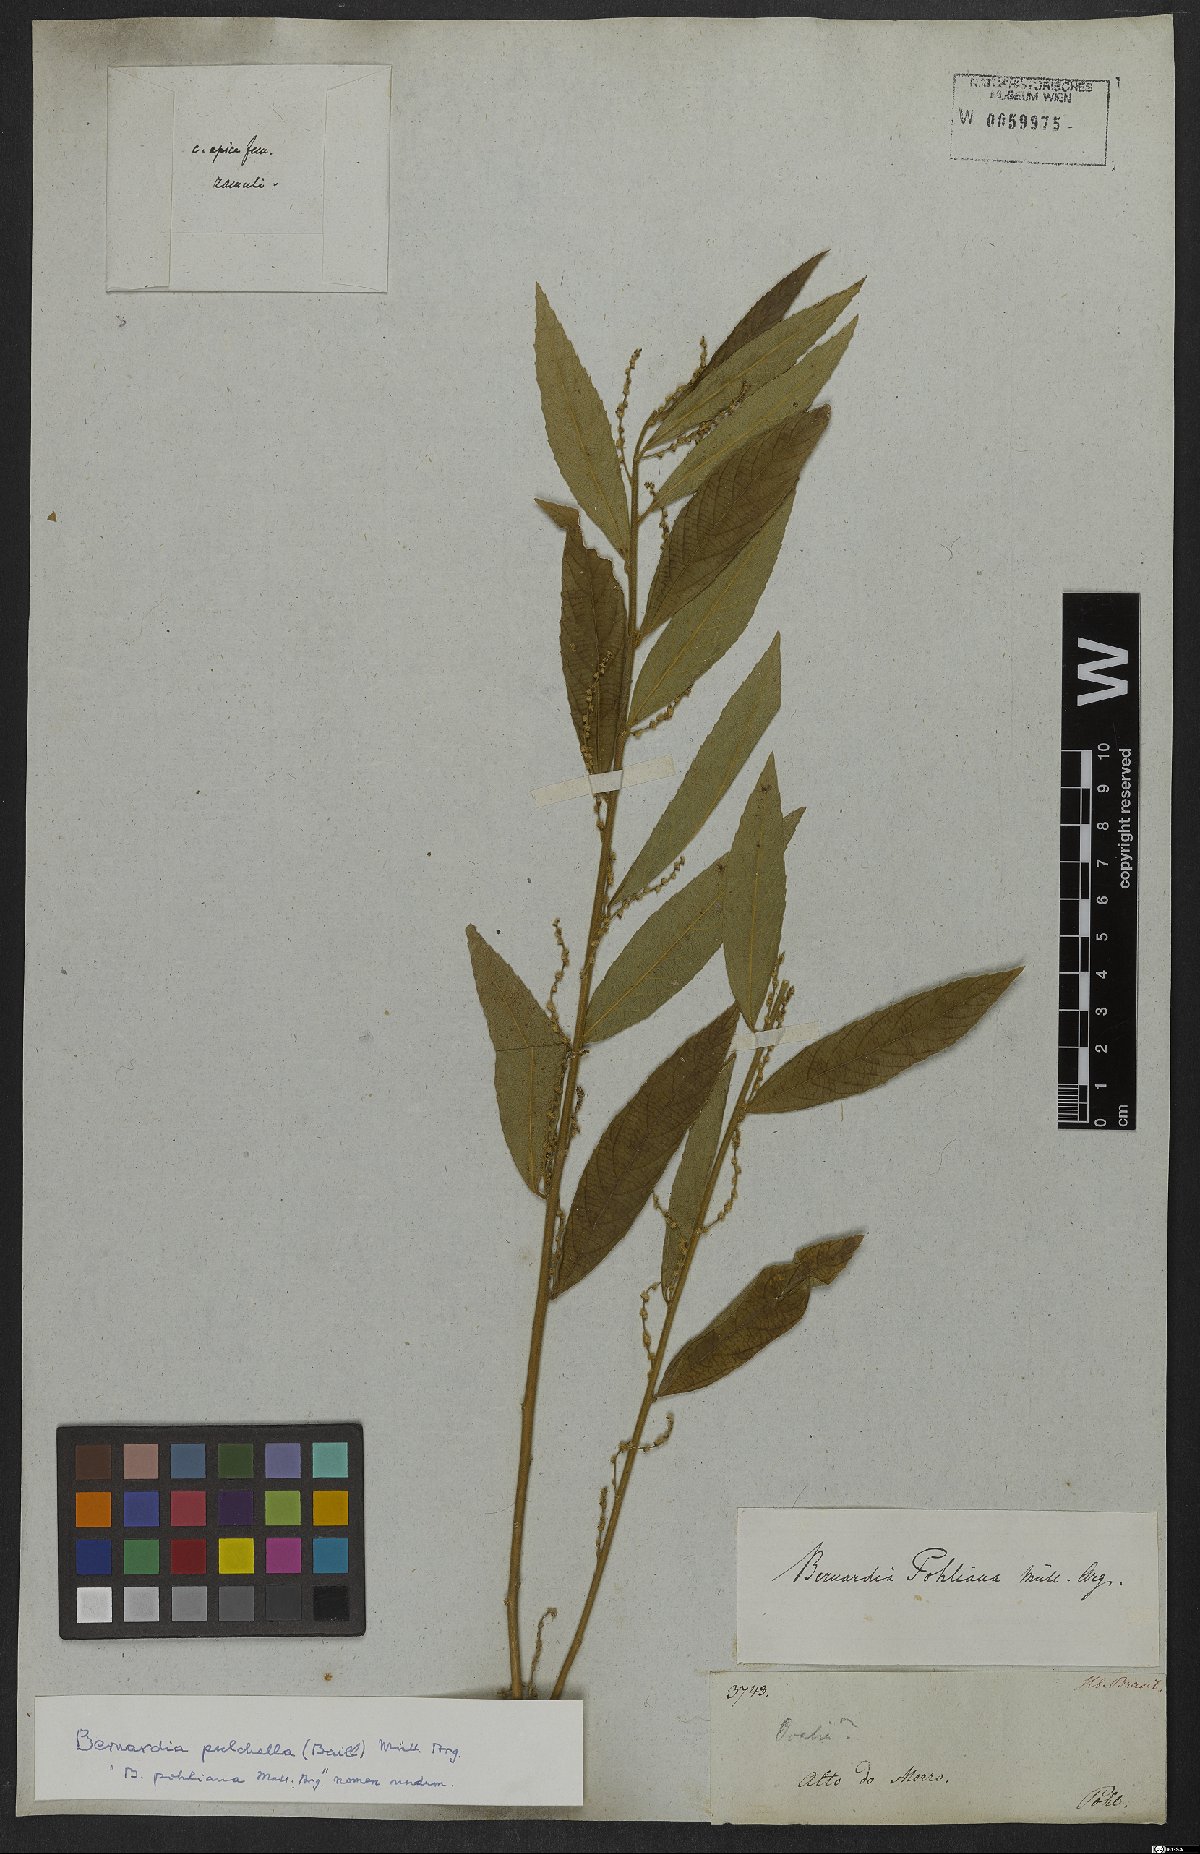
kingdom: Plantae
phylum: Tracheophyta
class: Magnoliopsida
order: Malpighiales
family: Euphorbiaceae
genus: Bernardia
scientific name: Bernardia pulchella
